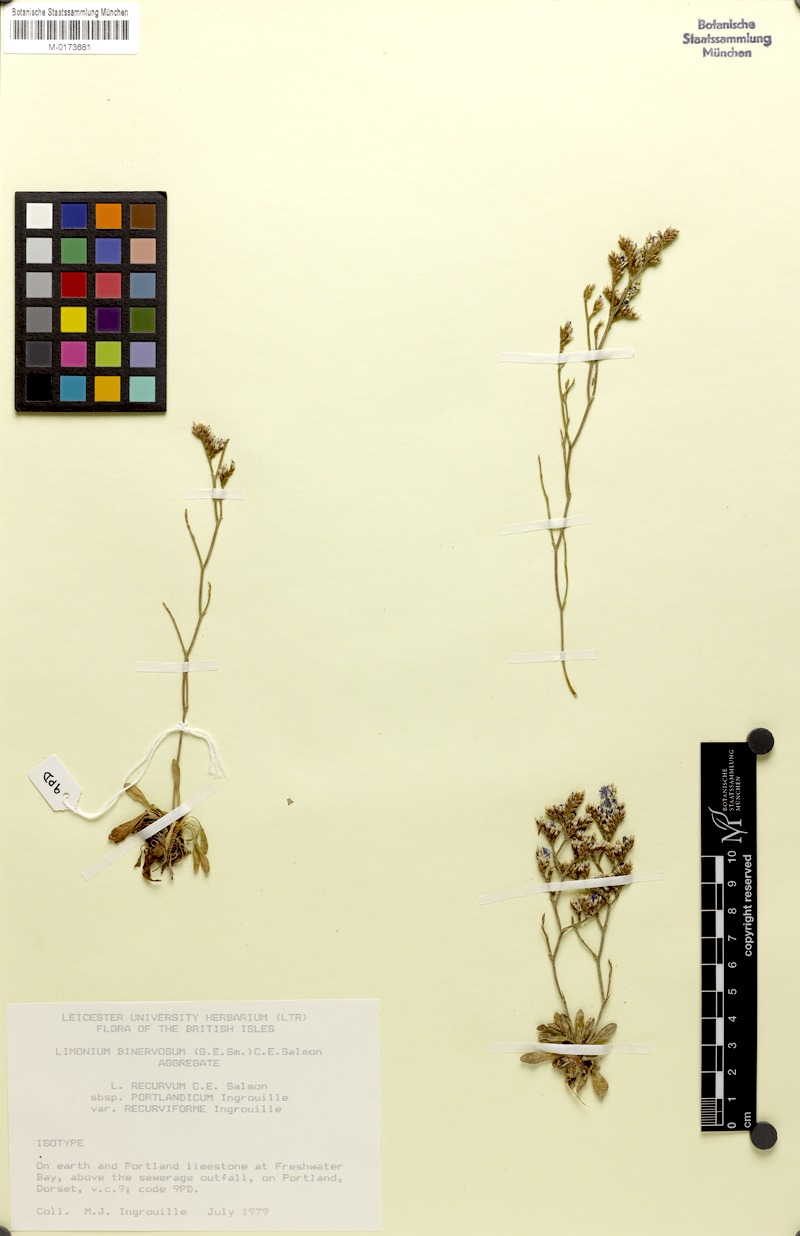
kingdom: Plantae
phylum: Tracheophyta
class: Magnoliopsida
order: Caryophyllales
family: Plumbaginaceae
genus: Limonium
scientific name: Limonium recurvum
